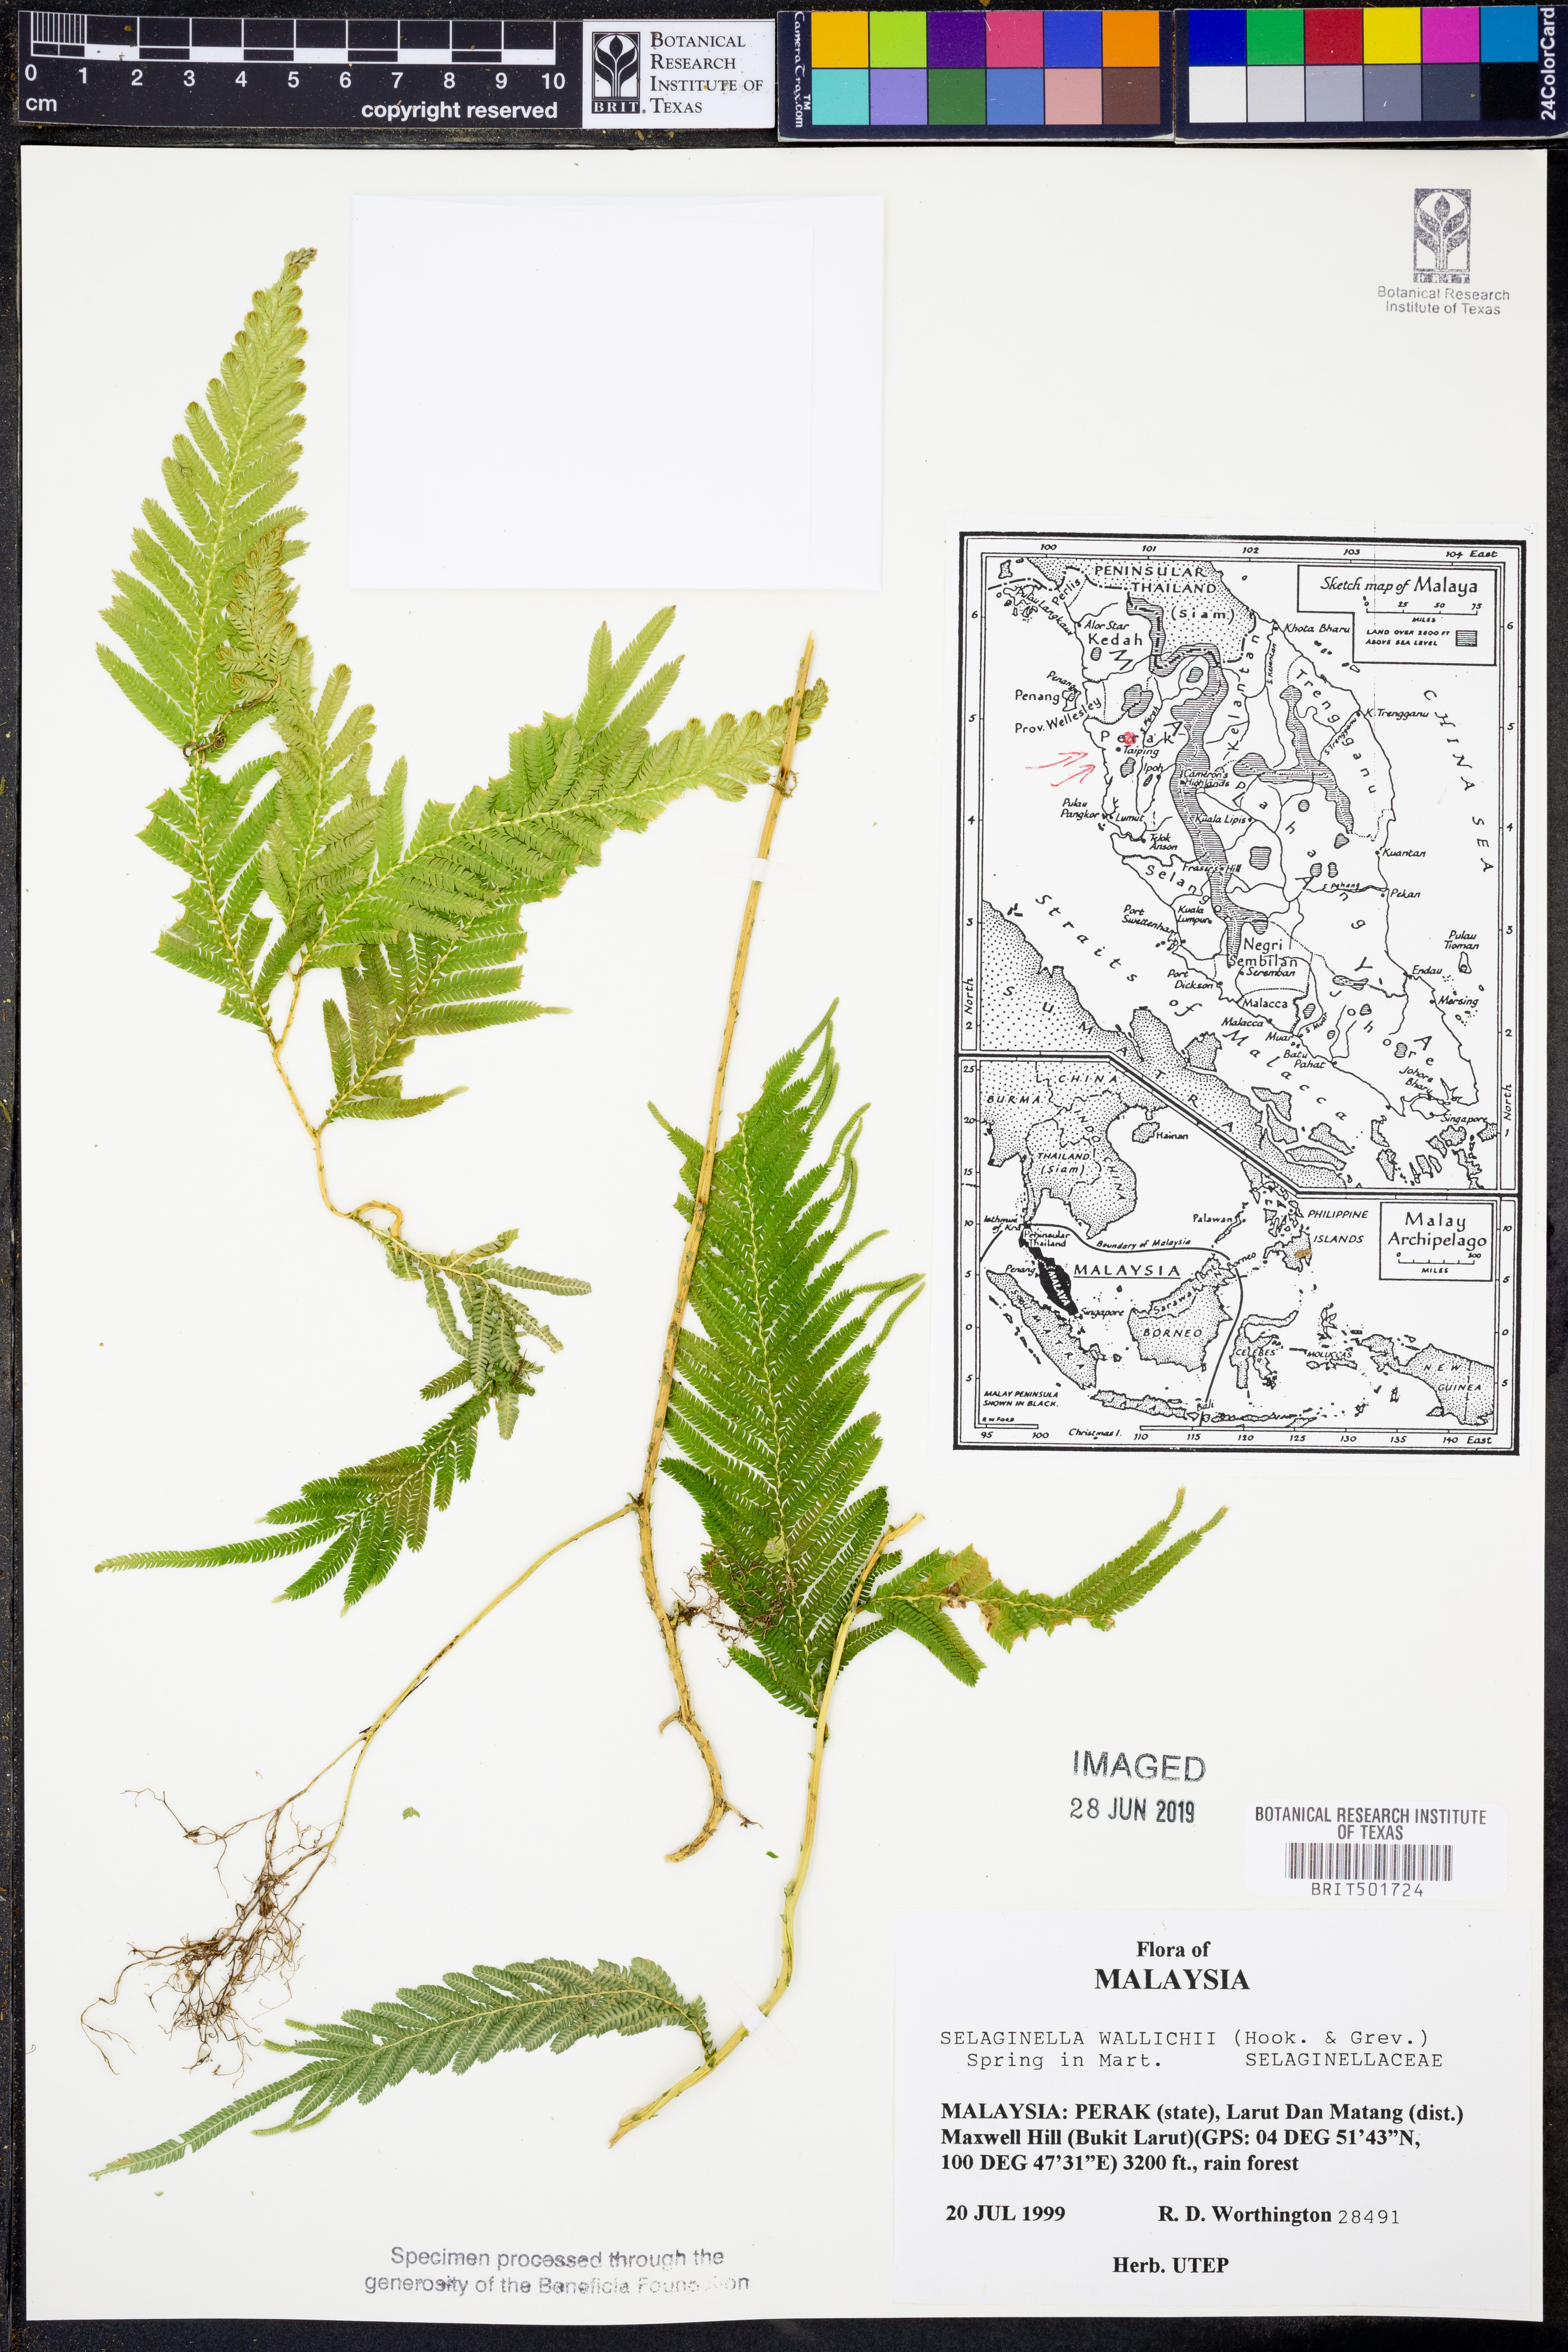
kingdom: Plantae
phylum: Tracheophyta
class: Lycopodiopsida
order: Selaginellales
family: Selaginellaceae
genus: Selaginella
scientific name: Selaginella wallichii
